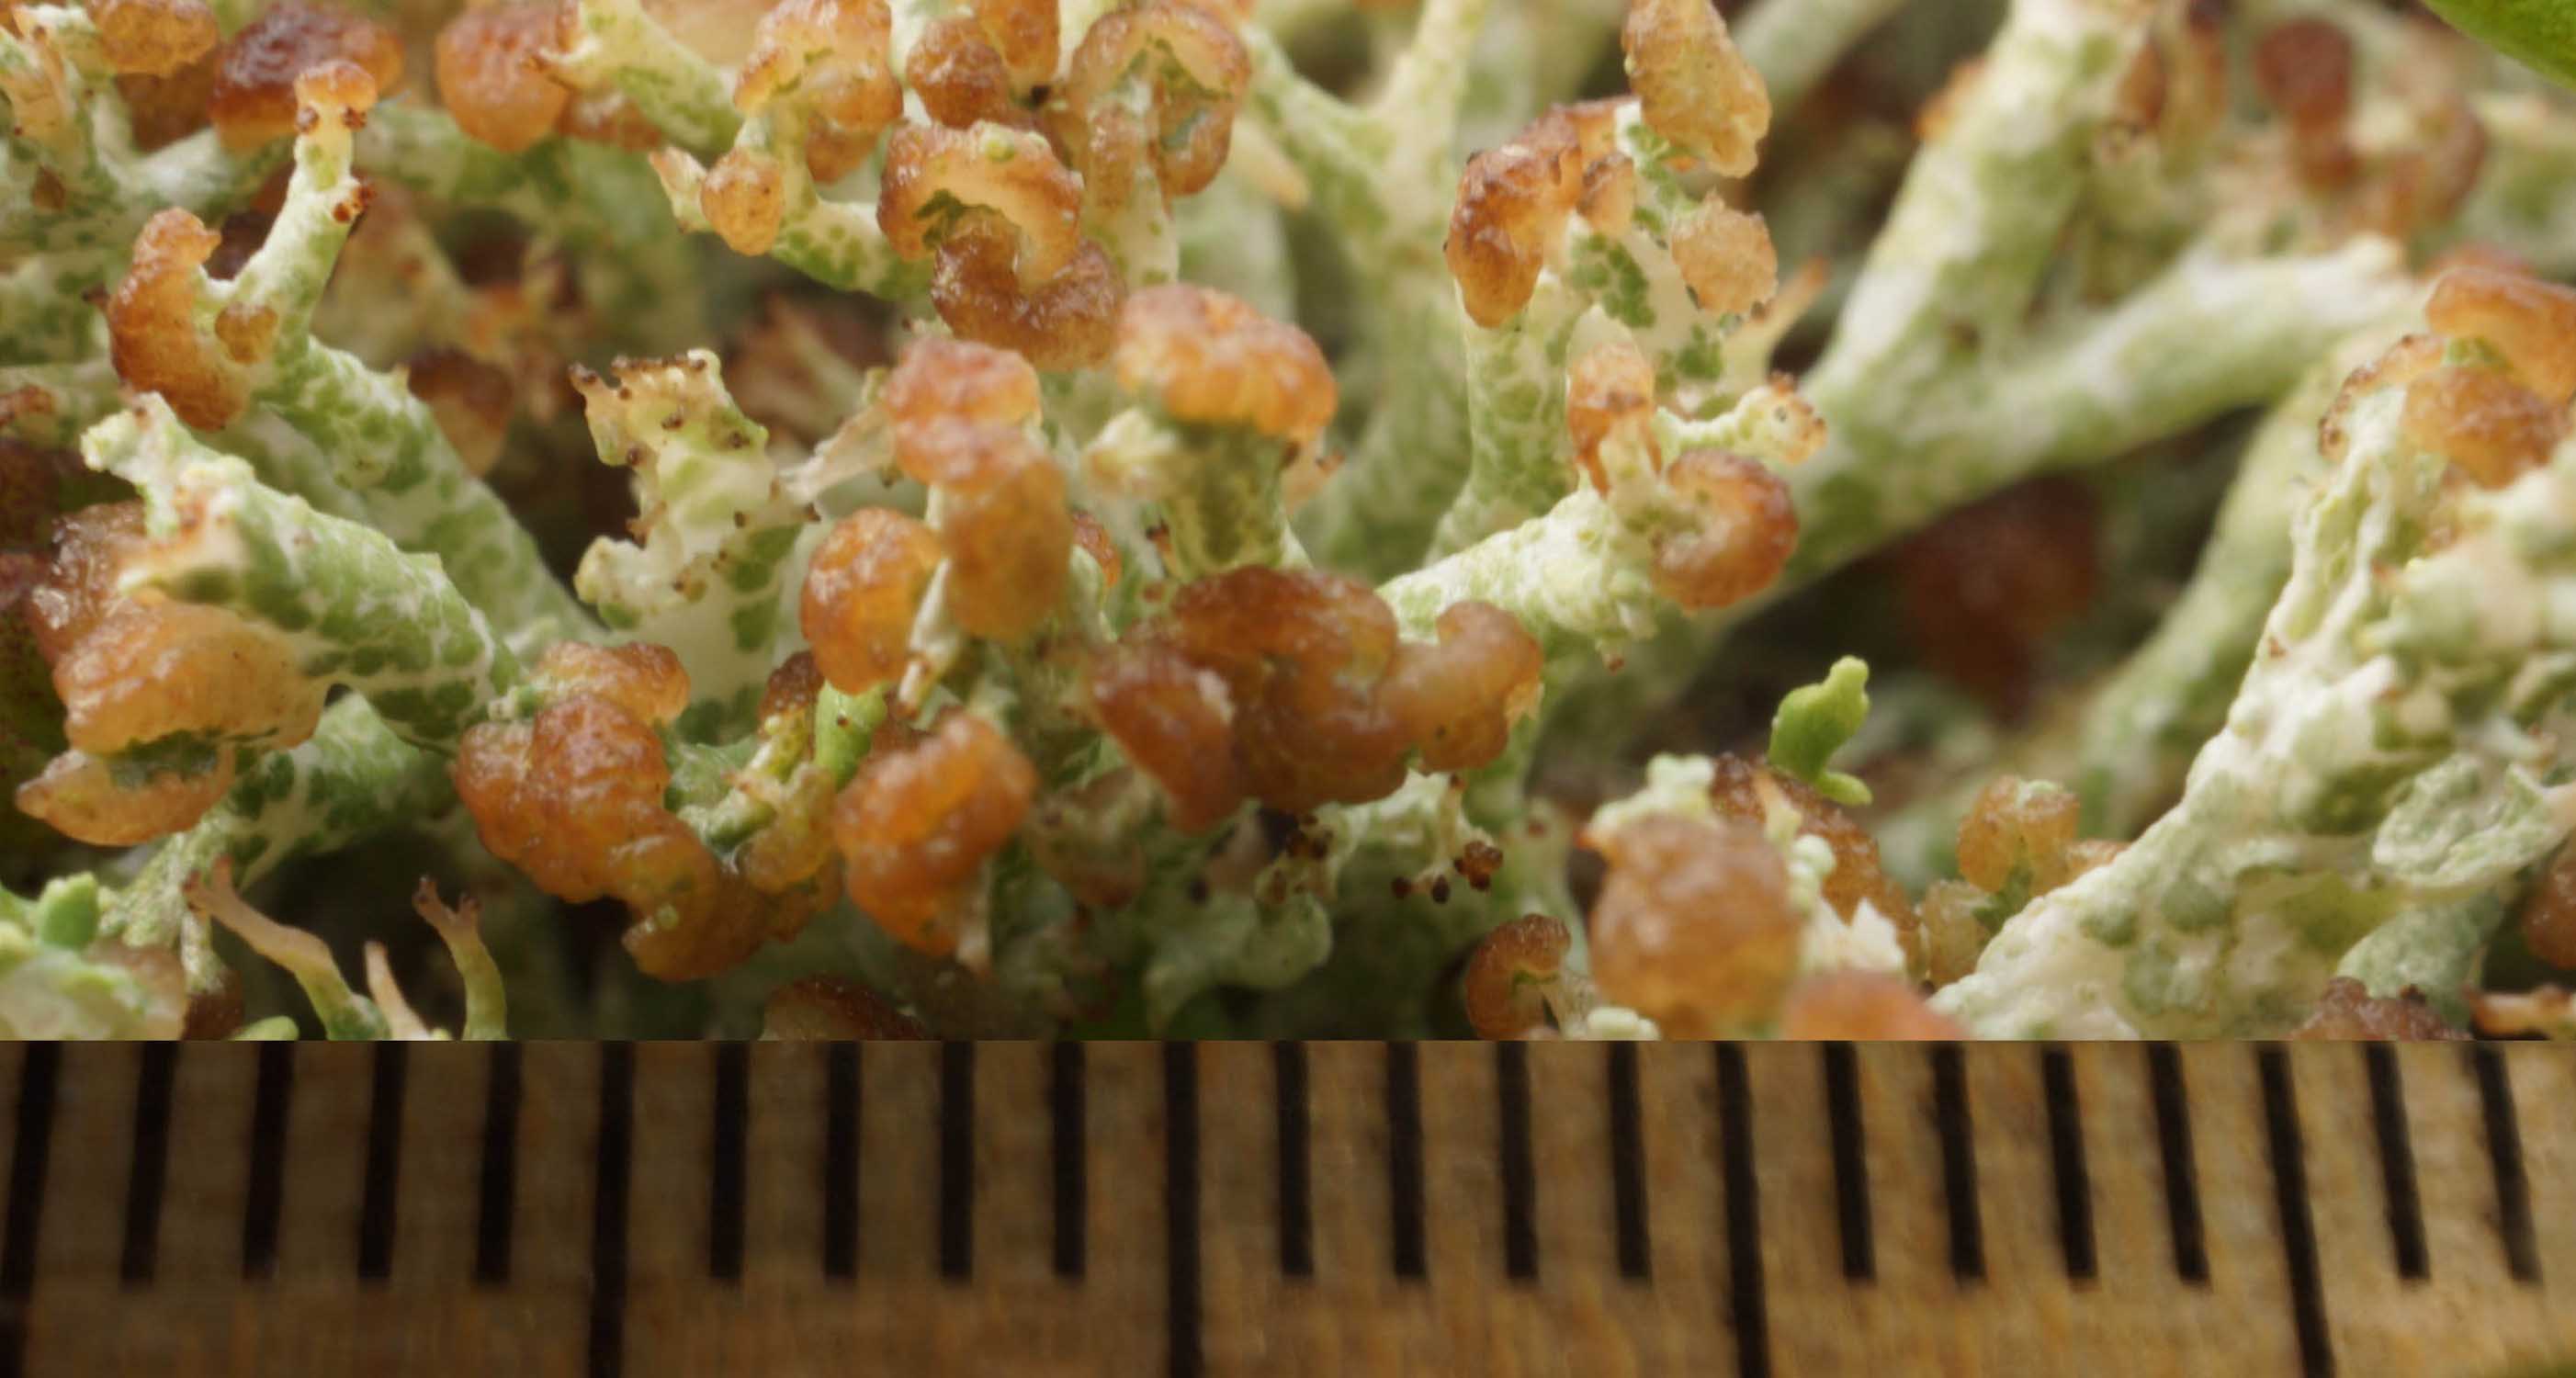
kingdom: Fungi
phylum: Basidiomycota
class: Tremellomycetes
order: Filobasidiales
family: Filobasidiaceae
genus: Zyzygomyces
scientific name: Zyzygomyces bachmannii
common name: rensdyrlav-snyltehjerne
